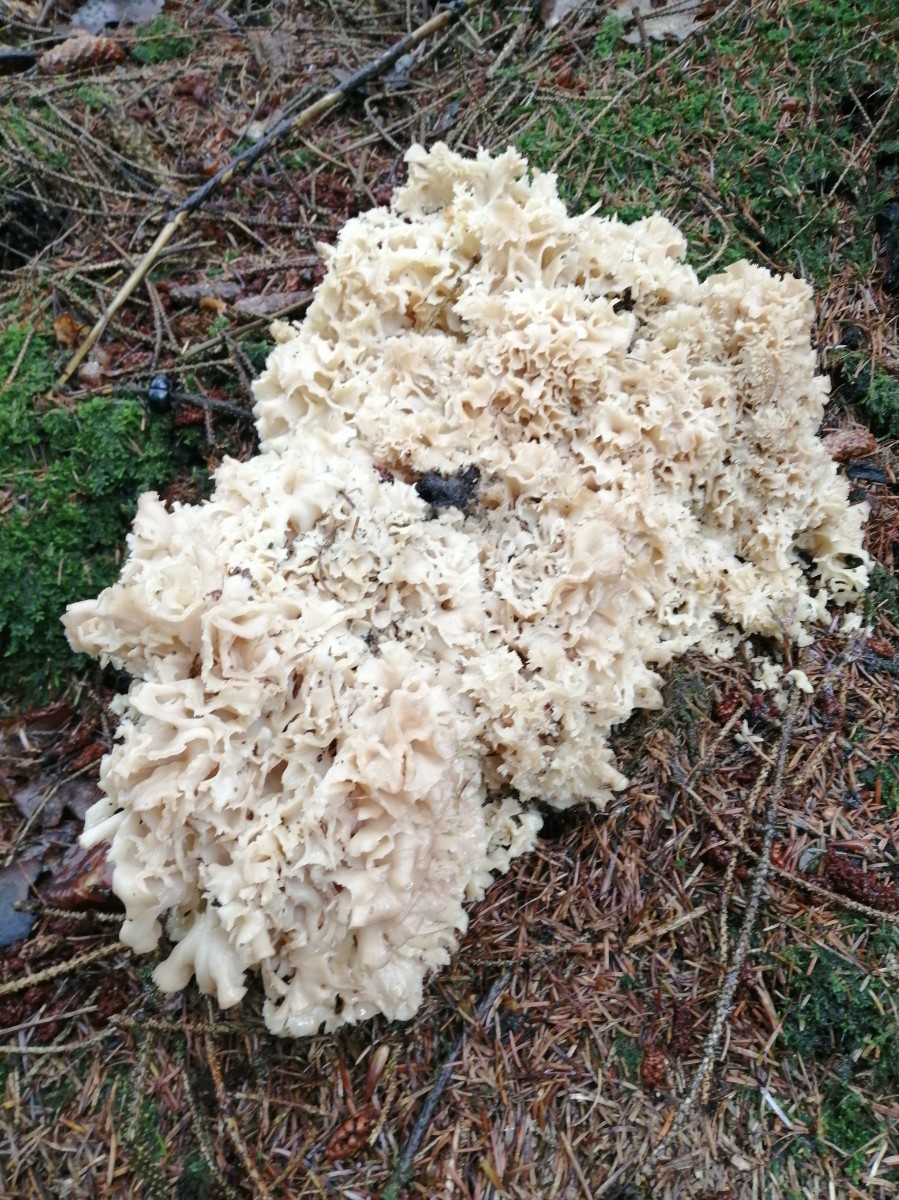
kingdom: Fungi
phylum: Basidiomycota
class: Agaricomycetes
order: Polyporales
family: Sparassidaceae
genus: Sparassis
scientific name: Sparassis crispa
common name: kruset blomkålssvamp
